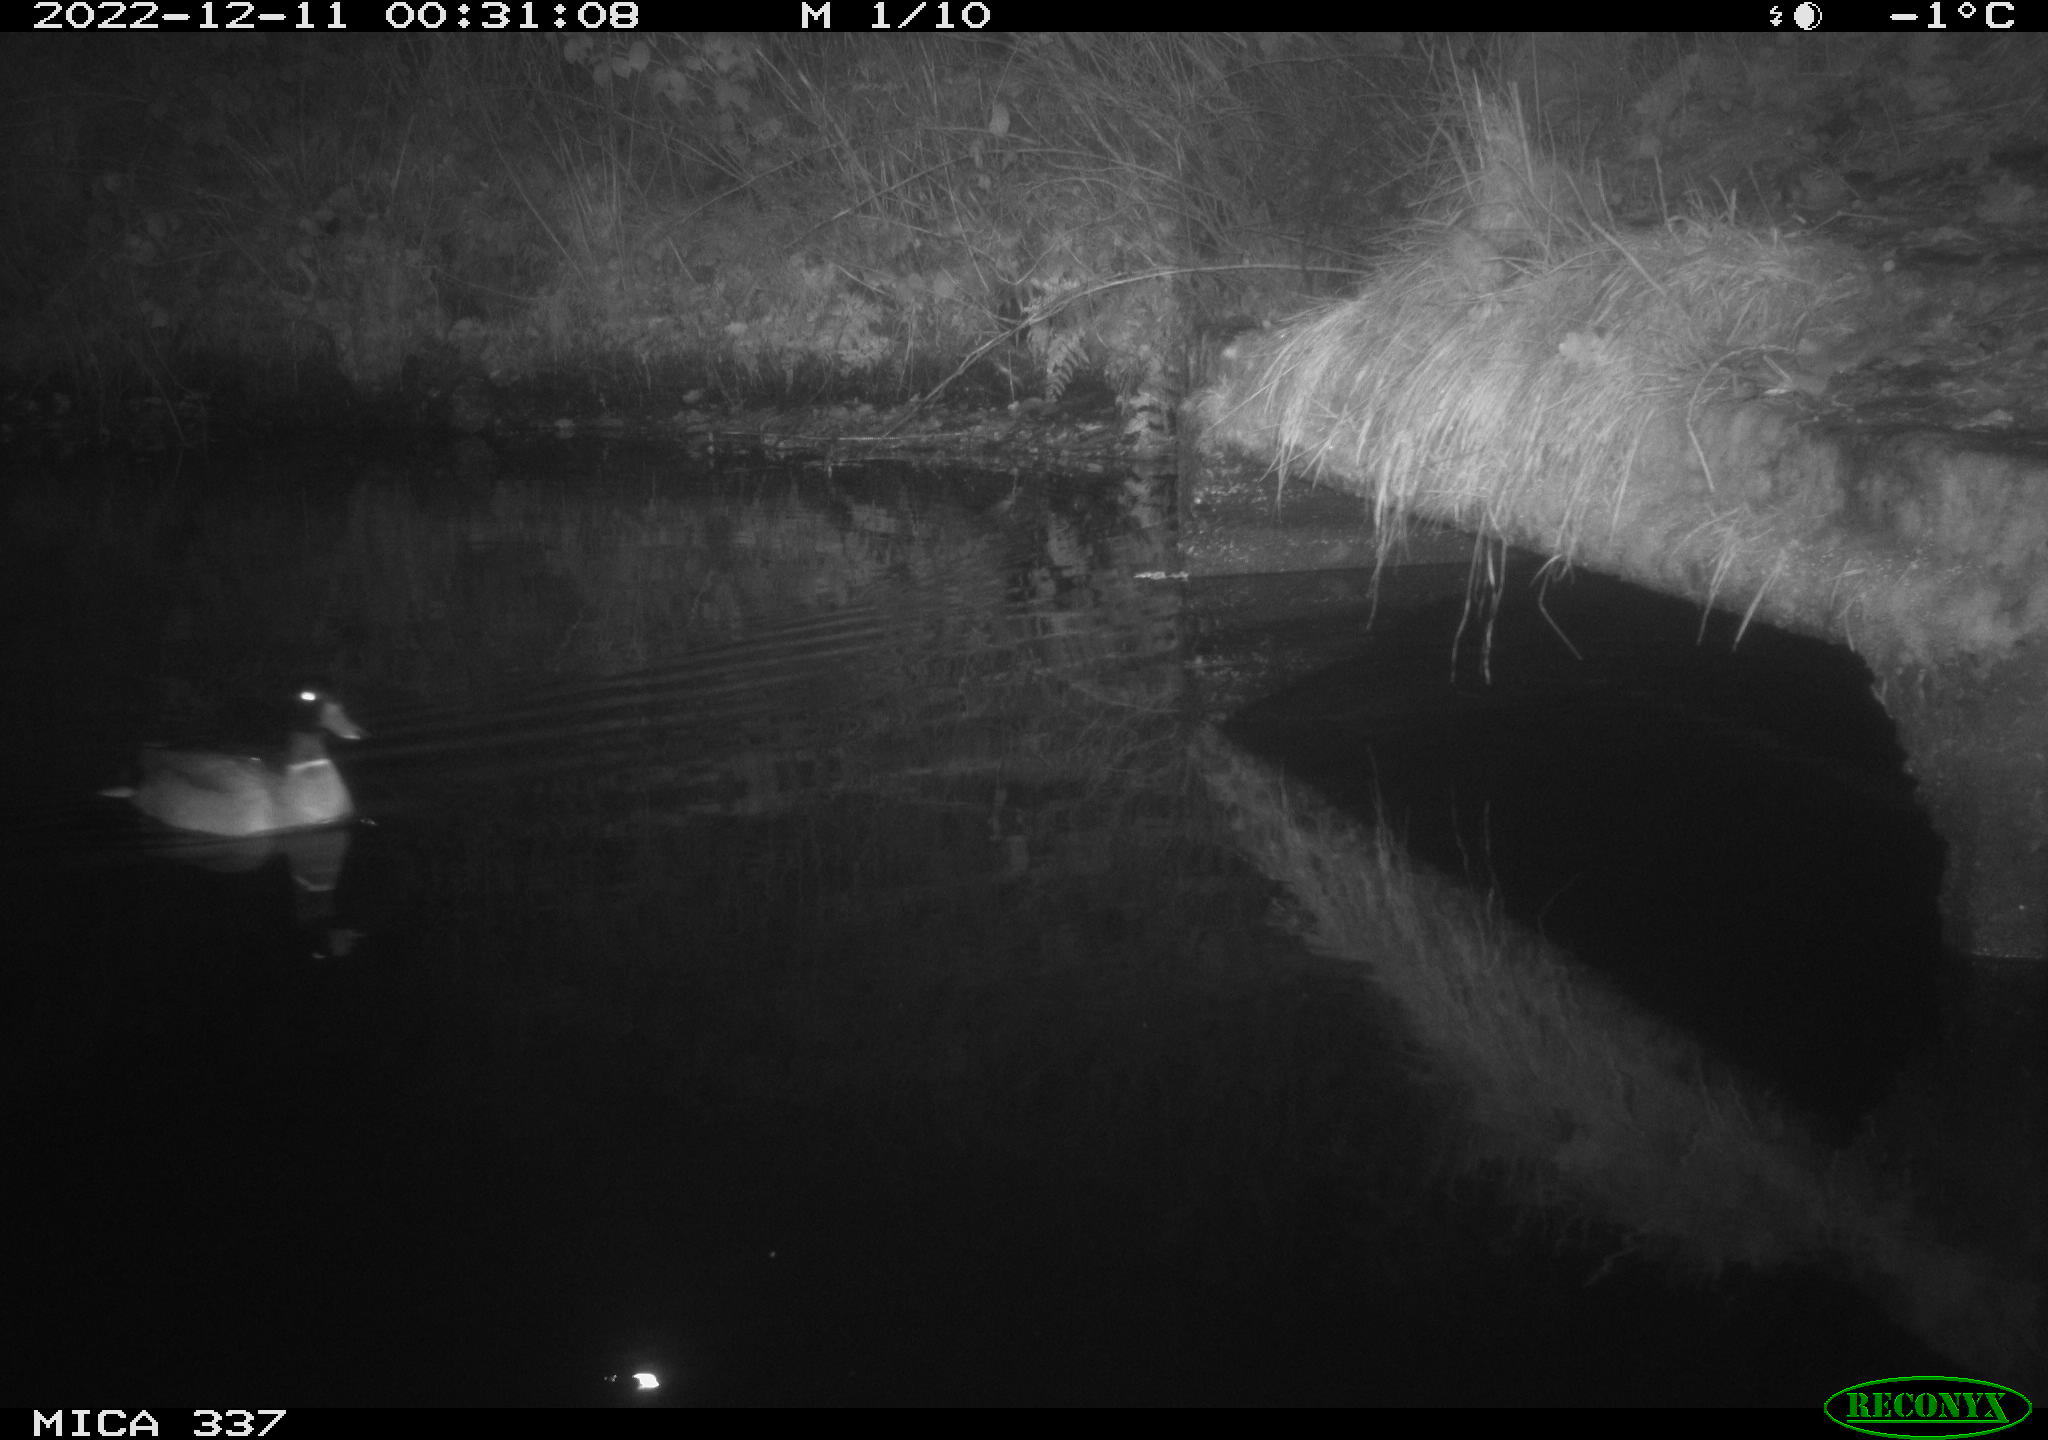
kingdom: Animalia
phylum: Chordata
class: Aves
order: Anseriformes
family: Anatidae
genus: Anas
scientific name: Anas
